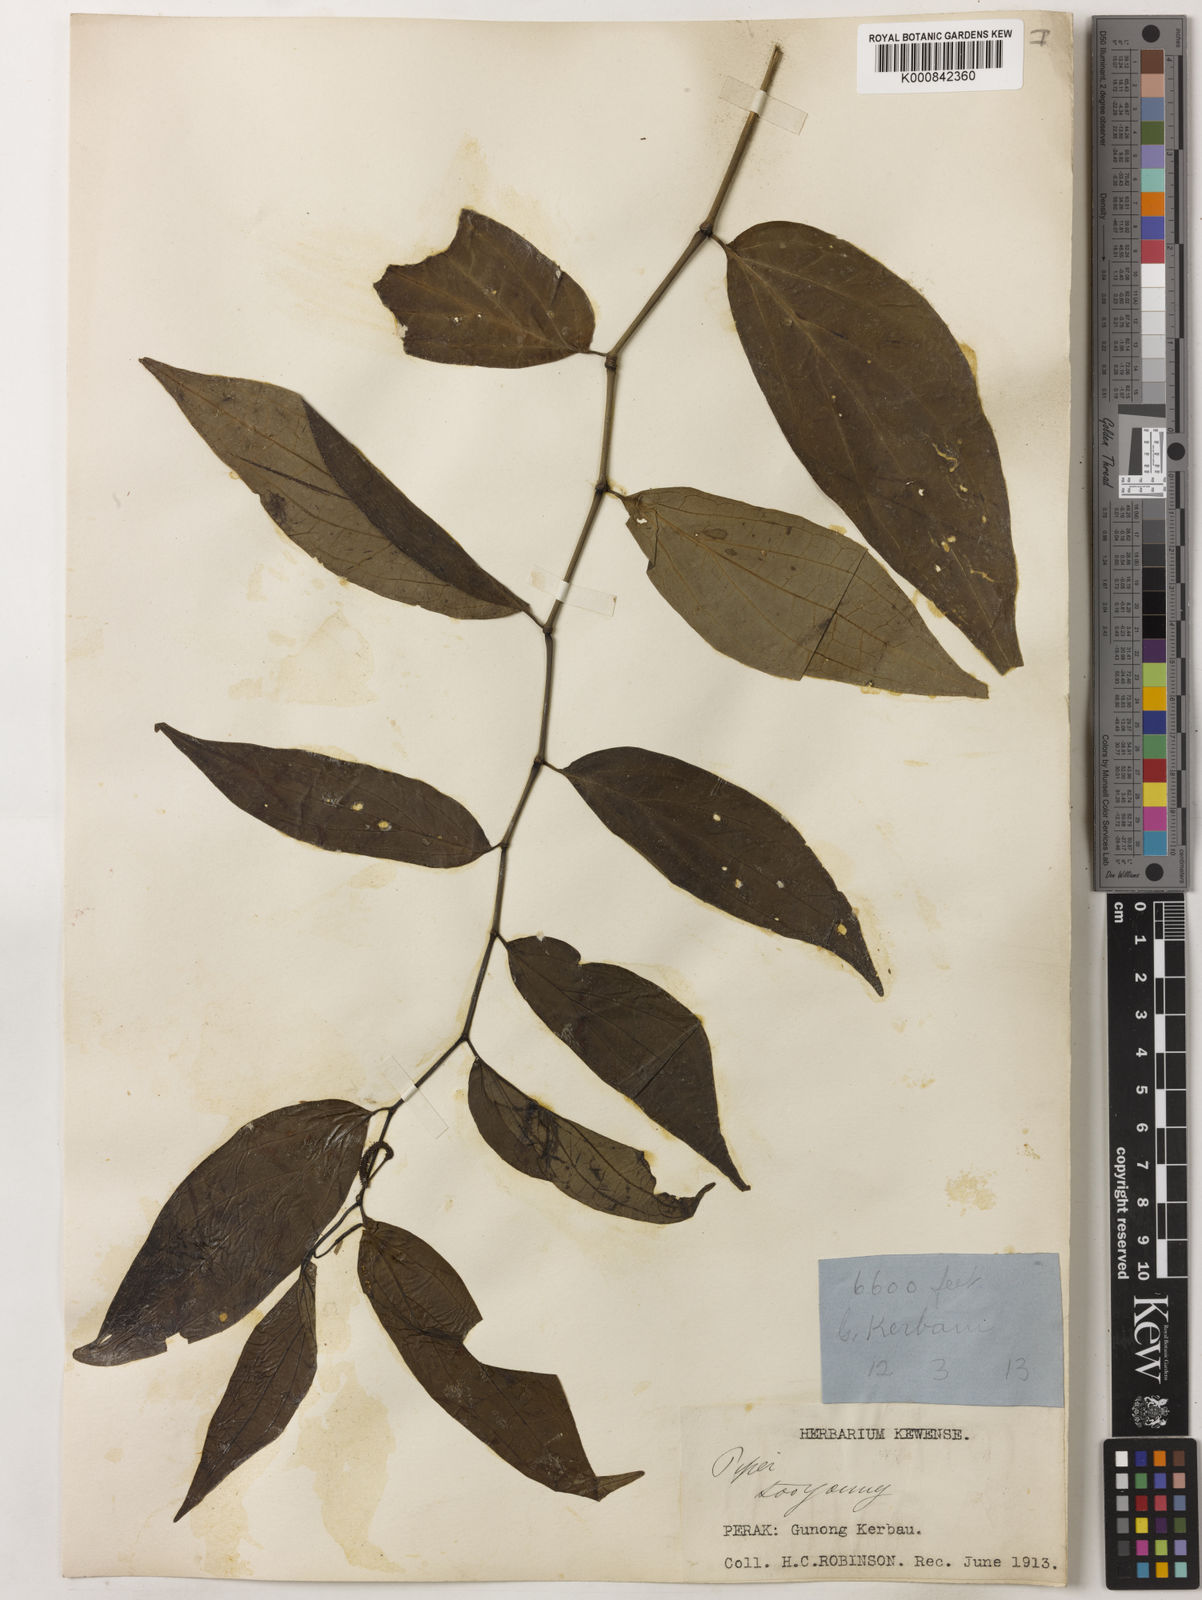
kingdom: Plantae
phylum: Tracheophyta
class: Magnoliopsida
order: Piperales
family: Piperaceae
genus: Piper
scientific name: Piper boehmeriifolium
